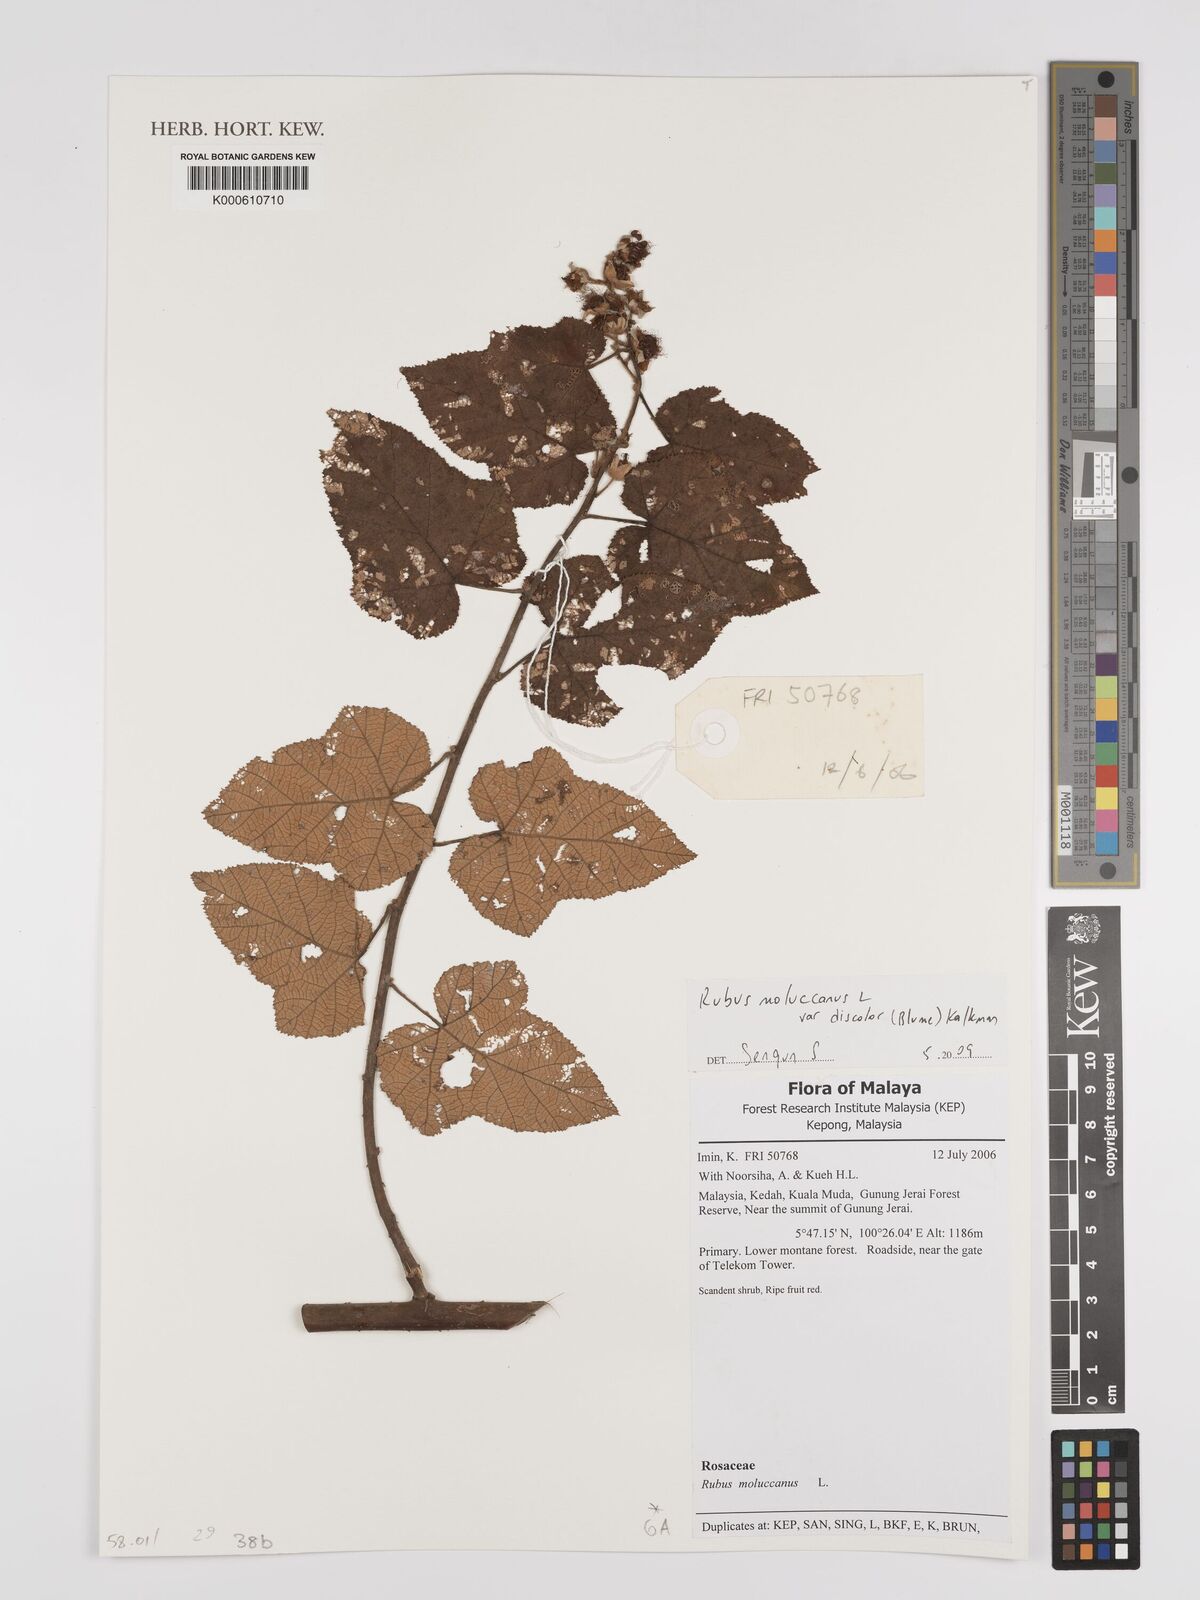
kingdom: Plantae
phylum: Tracheophyta
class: Magnoliopsida
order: Rosales
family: Rosaceae
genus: Rubus
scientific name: Rubus moluccanus
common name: Wild raspberry
